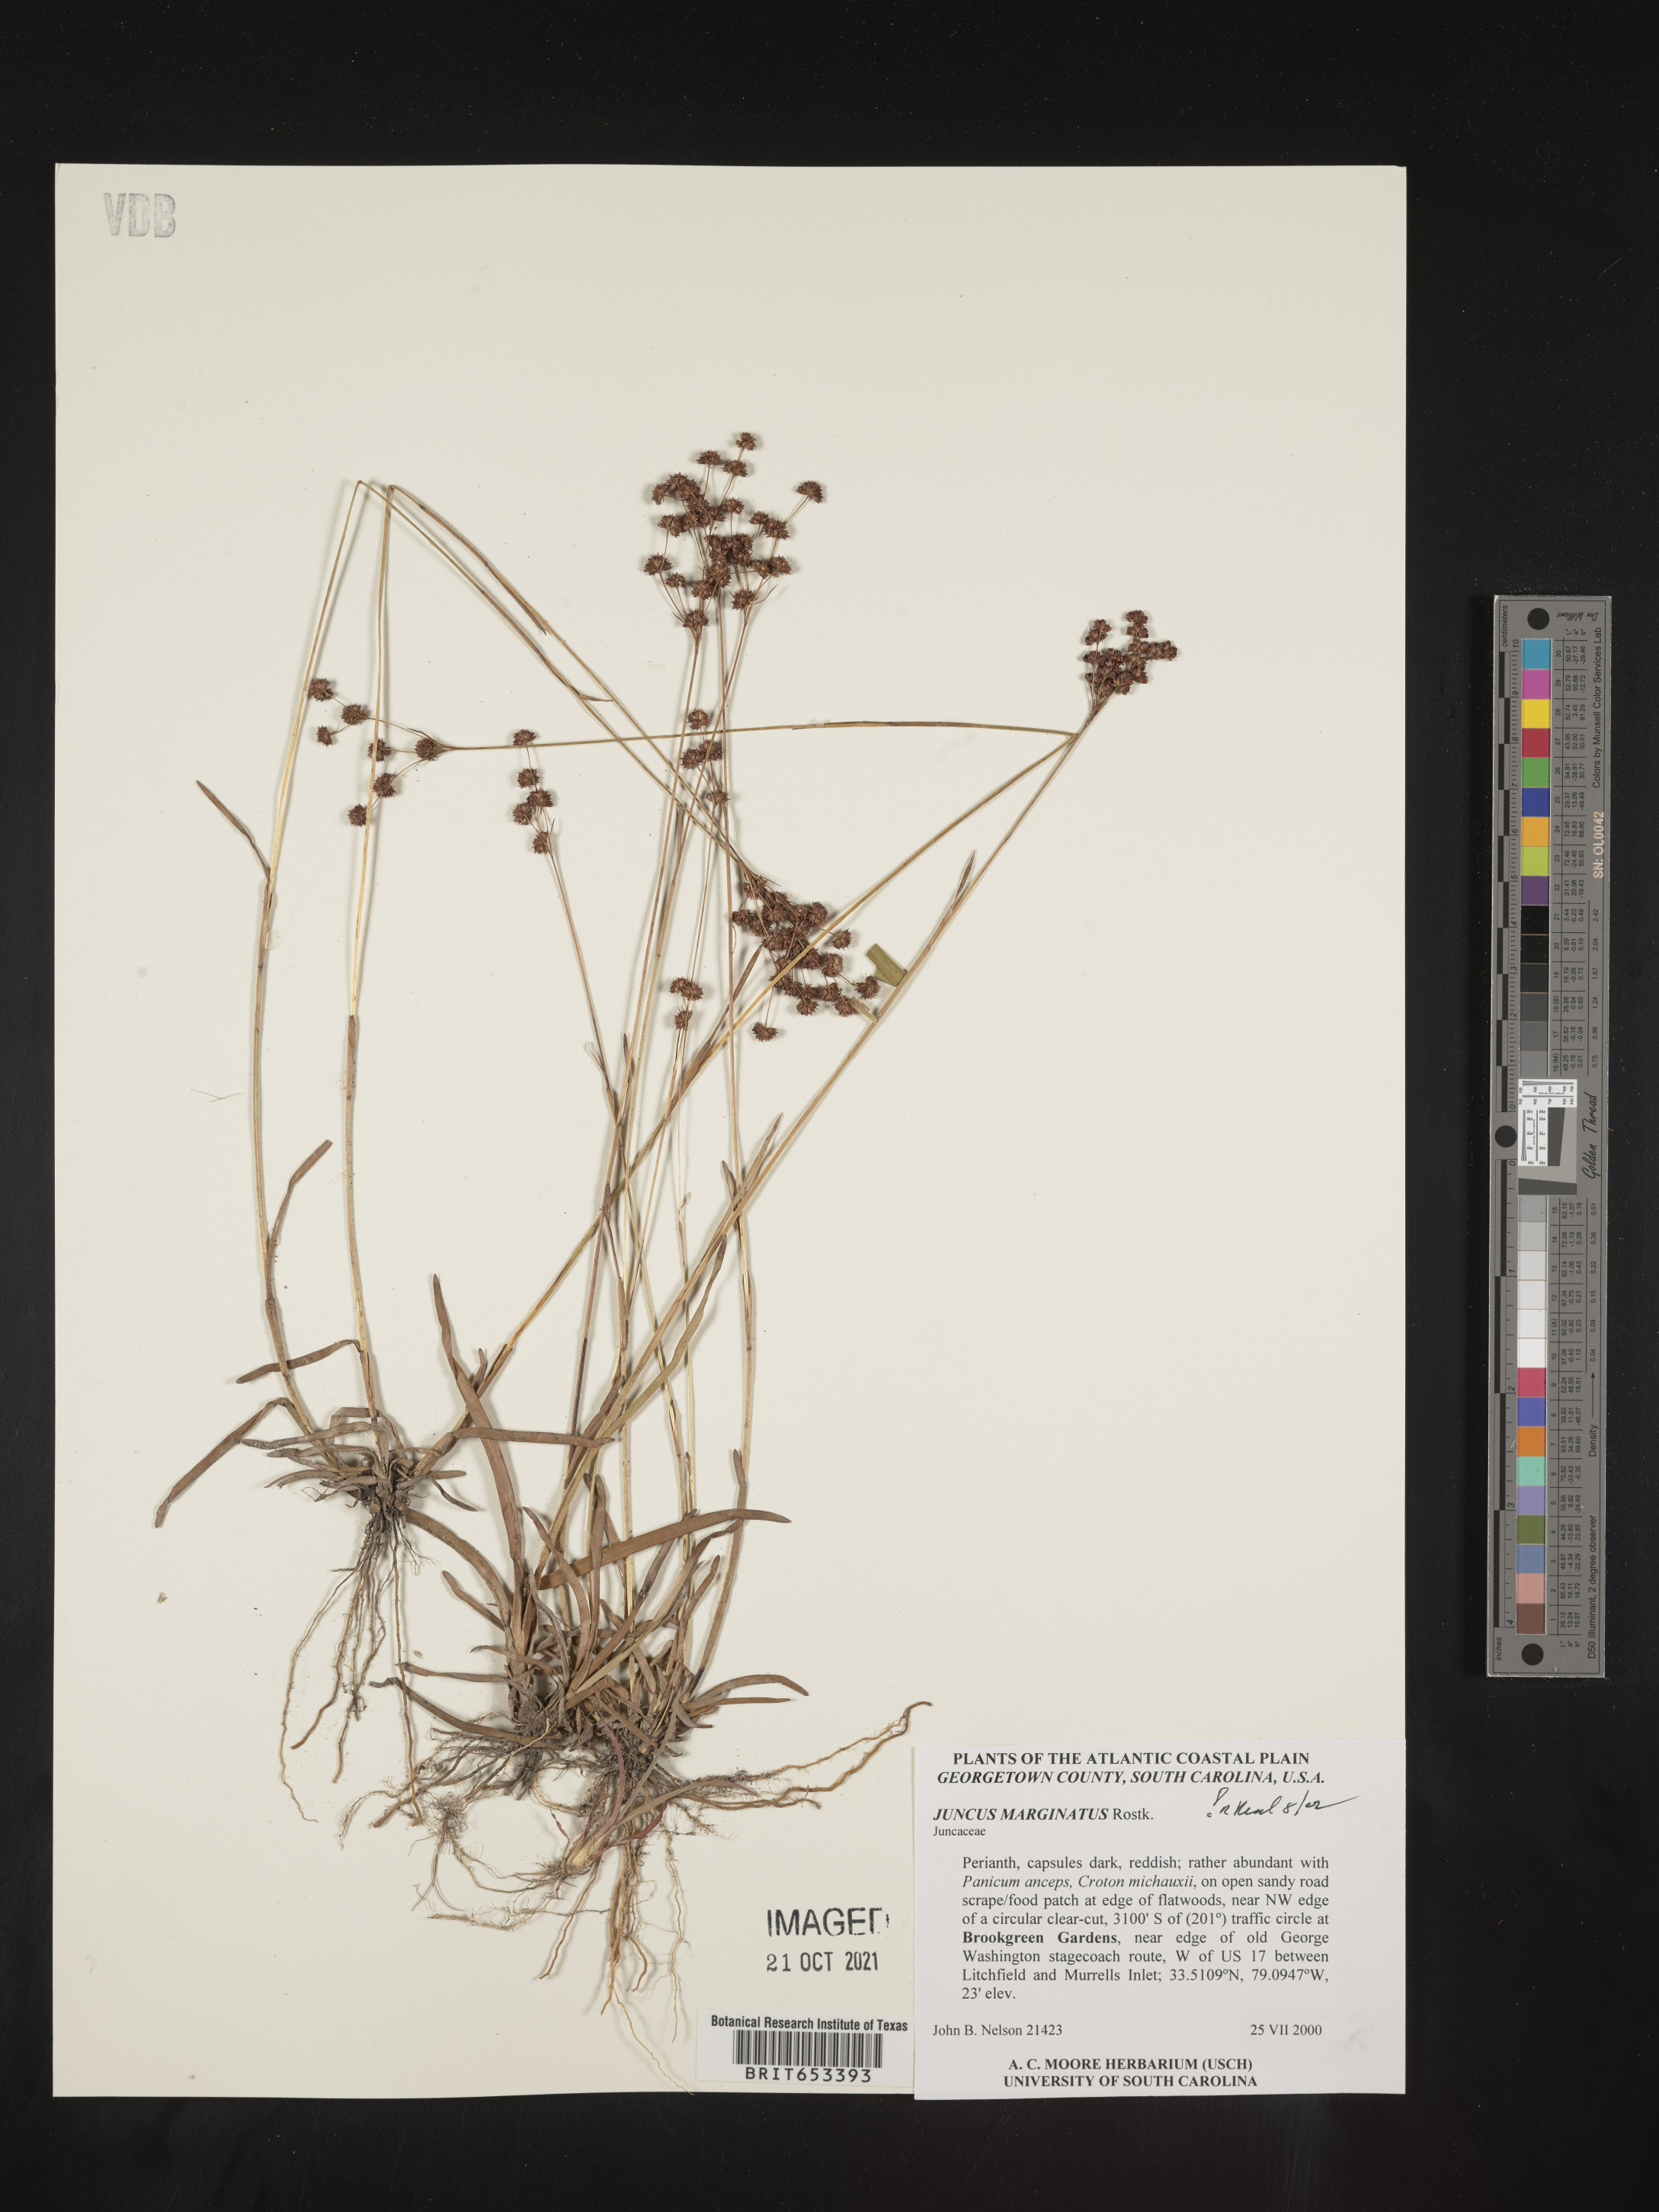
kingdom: Plantae
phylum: Tracheophyta
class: Liliopsida
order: Poales
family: Juncaceae
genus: Juncus
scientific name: Juncus marginatus
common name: Grass-leaf rush
